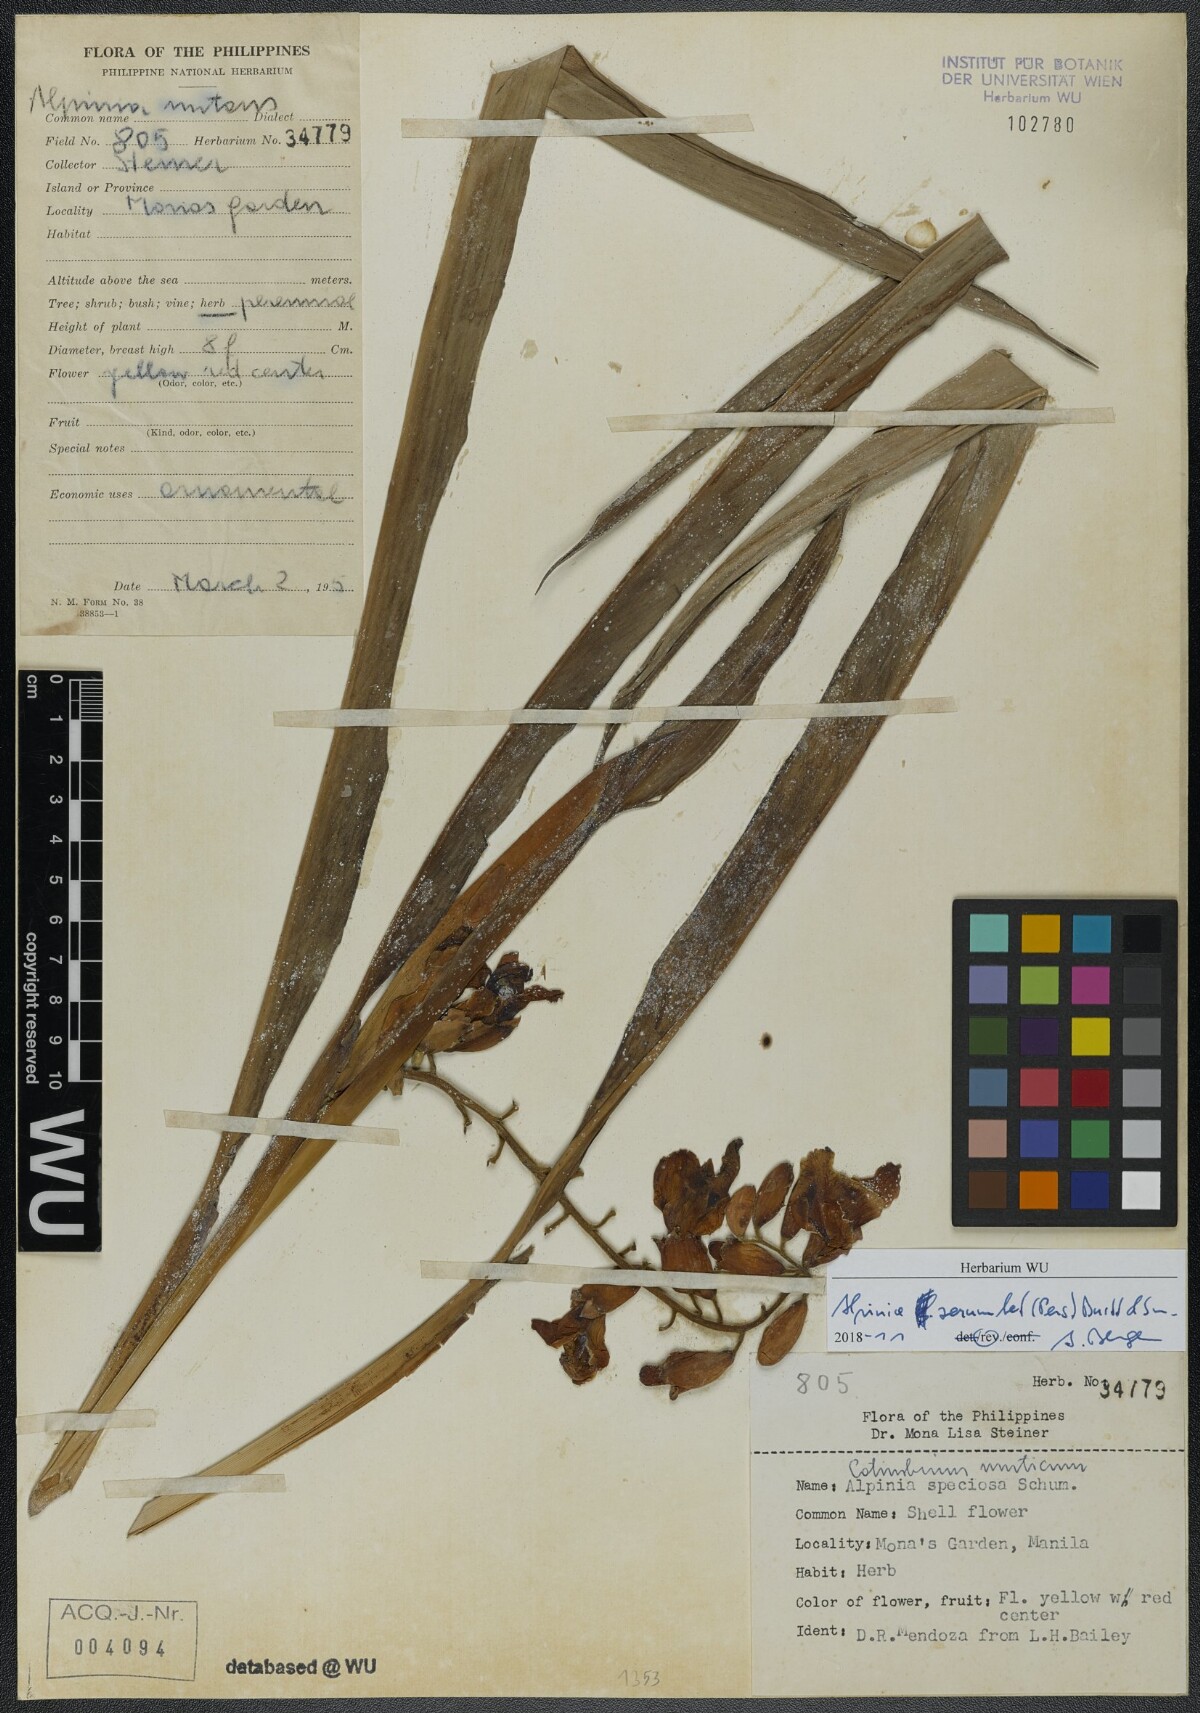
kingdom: Plantae
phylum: Tracheophyta
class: Liliopsida
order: Zingiberales
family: Zingiberaceae
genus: Alpinia
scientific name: Alpinia zerumbet
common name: Shellplant
